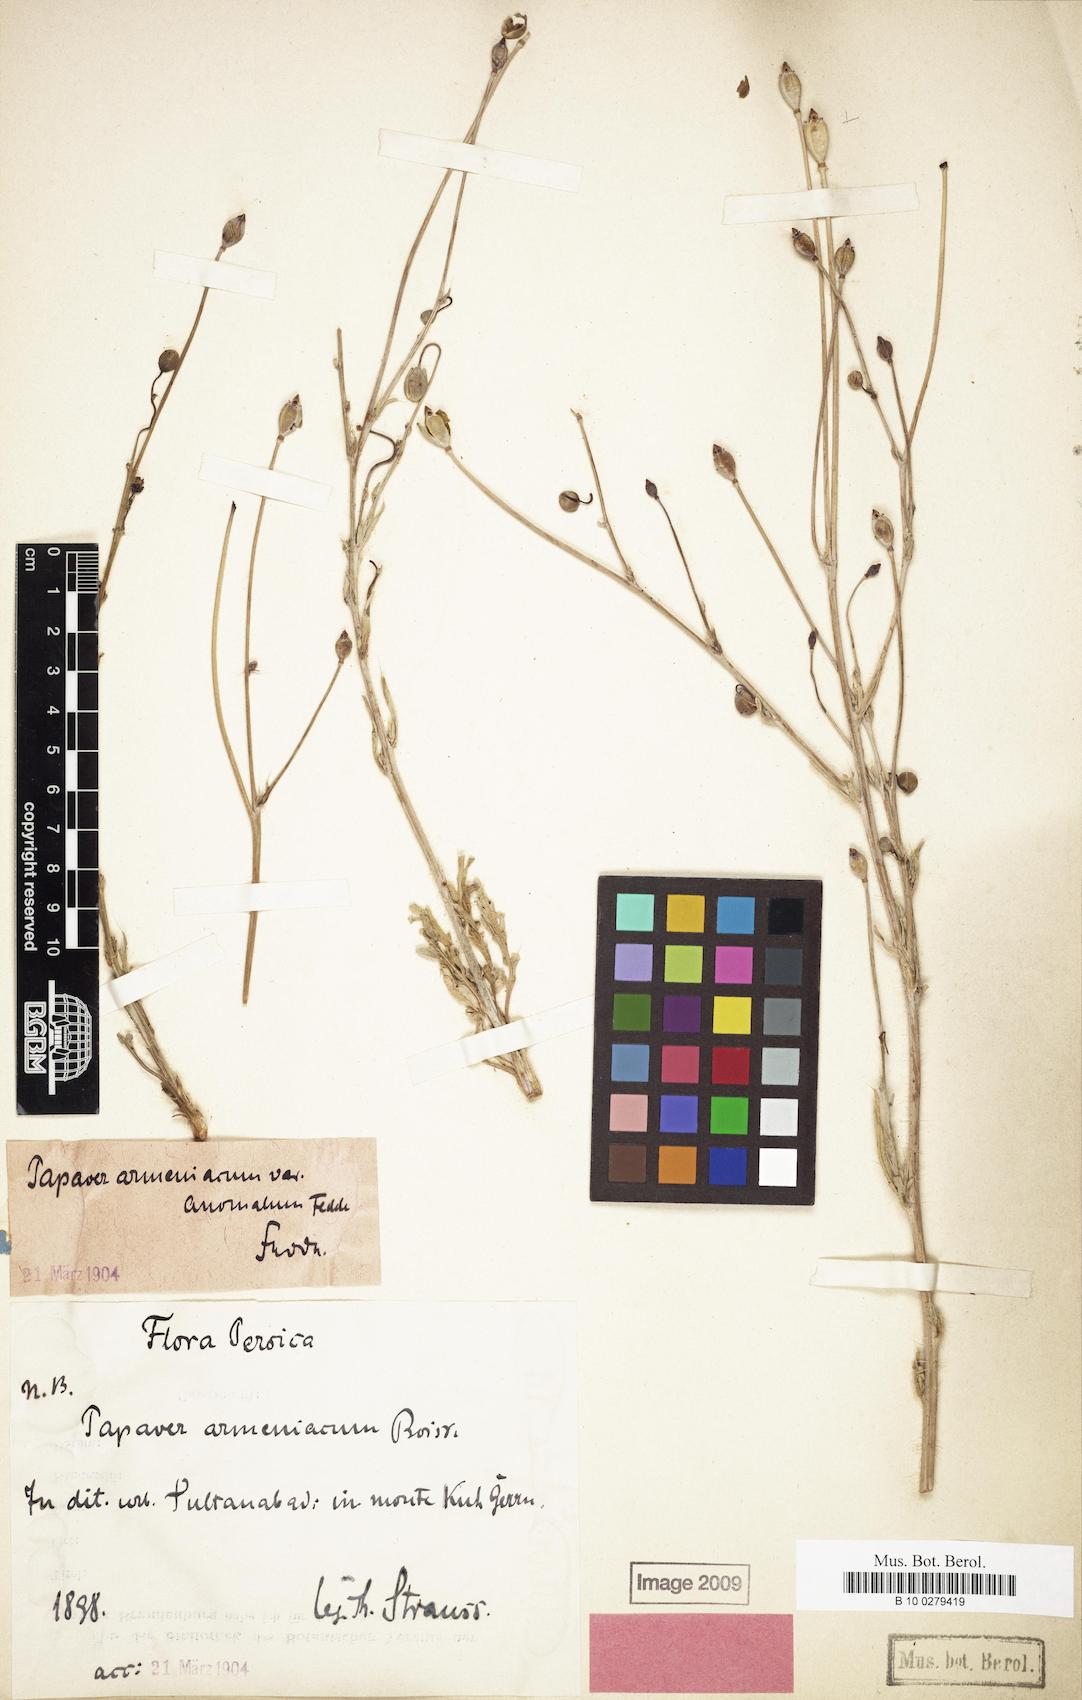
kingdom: Plantae
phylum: Tracheophyta
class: Magnoliopsida
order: Ranunculales
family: Papaveraceae
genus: Papaver
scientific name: Papaver armeniacum
